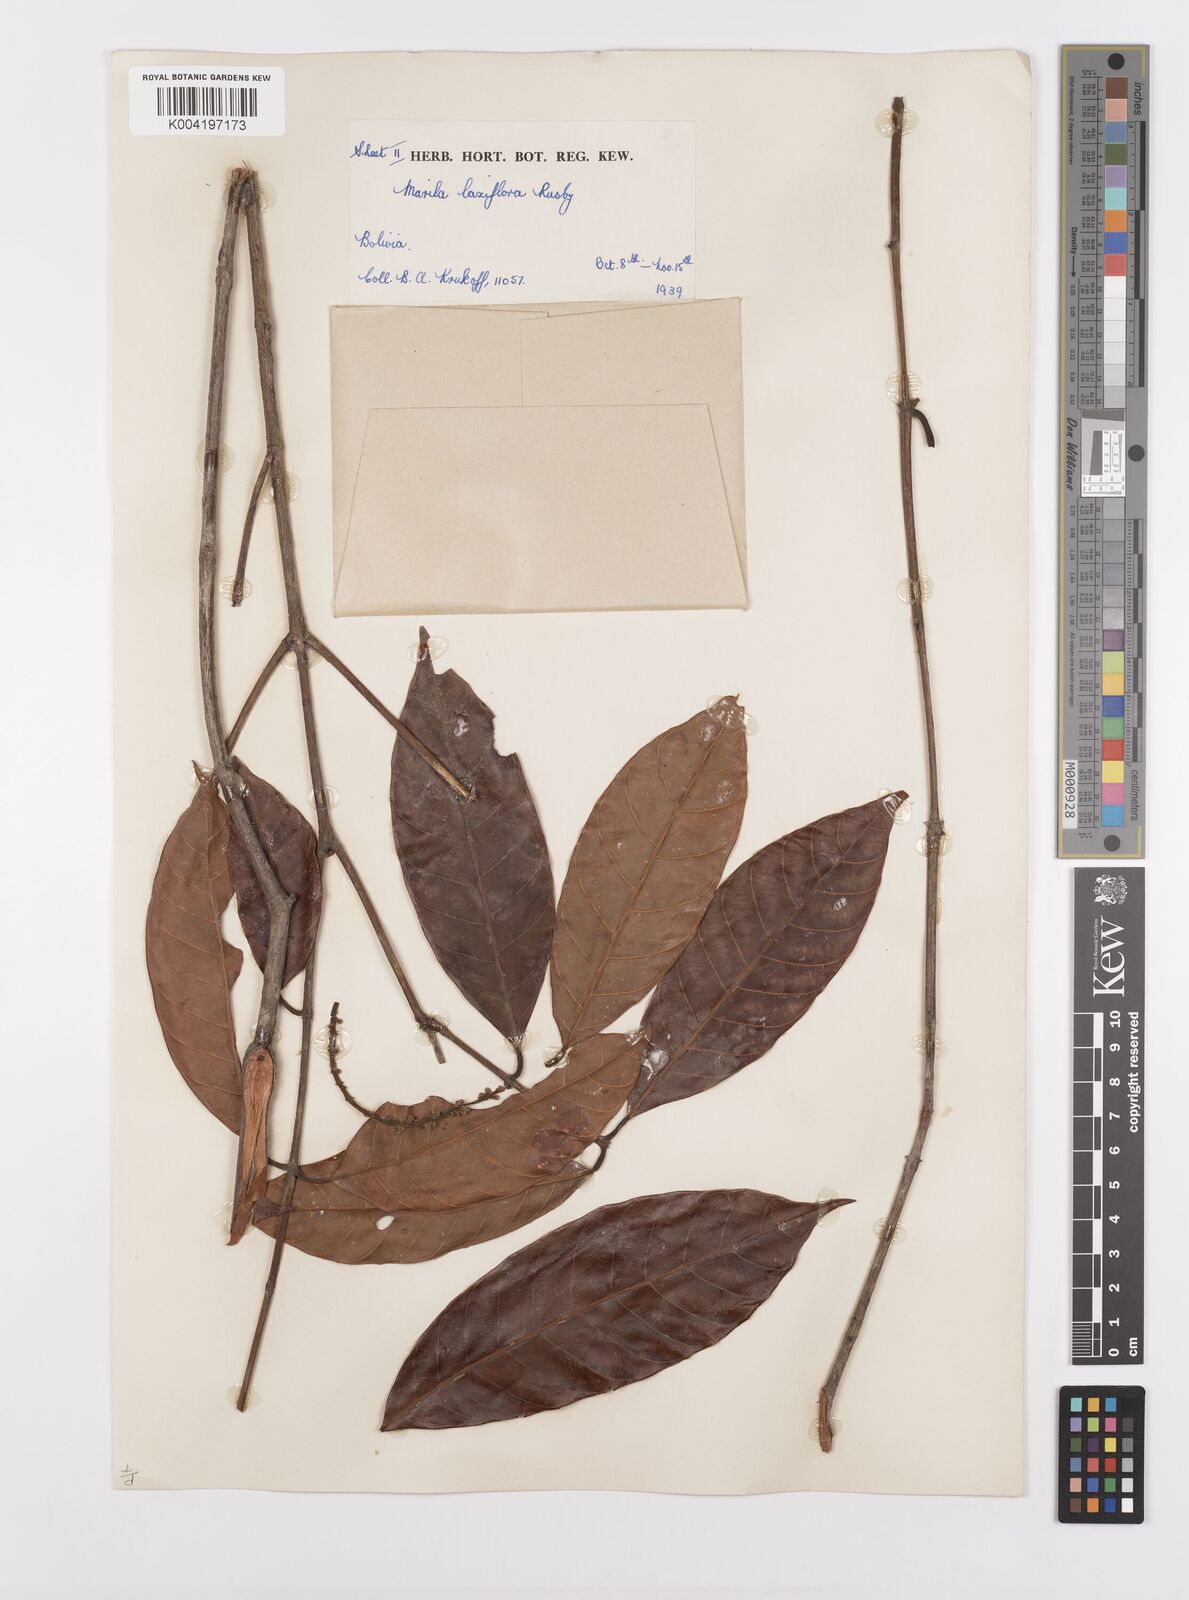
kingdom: Plantae
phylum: Tracheophyta
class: Magnoliopsida
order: Malpighiales
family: Calophyllaceae
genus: Marila
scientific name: Marila
